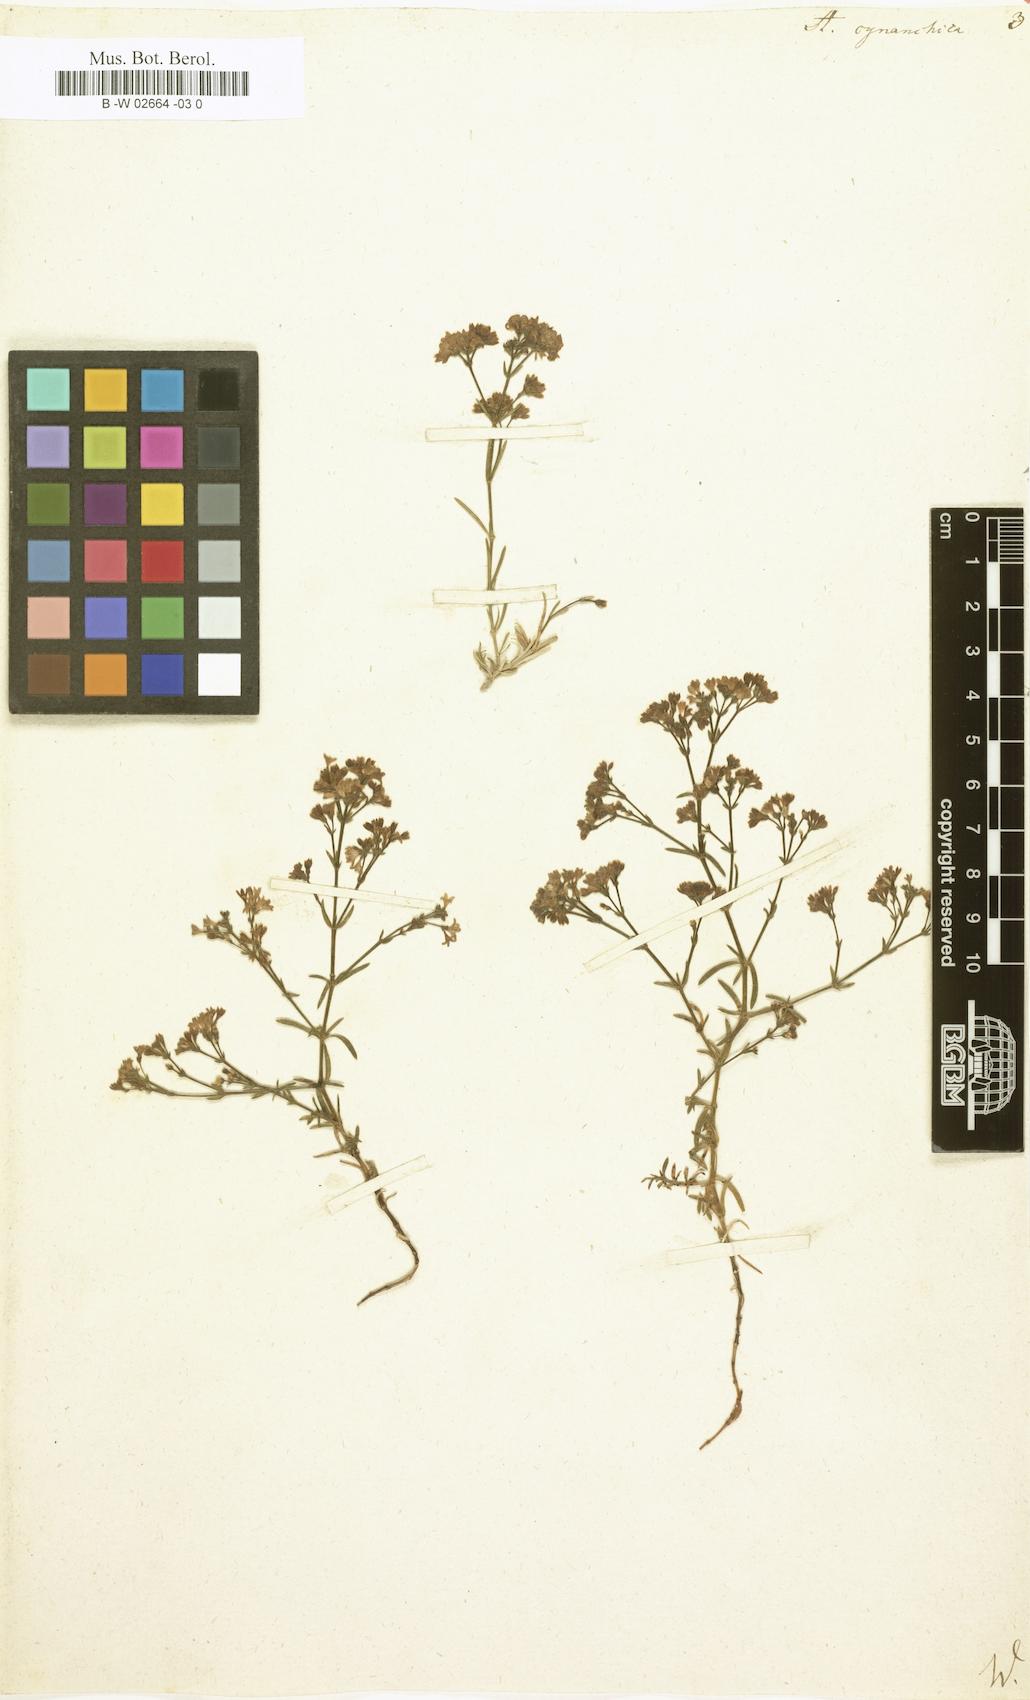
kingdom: Plantae
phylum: Tracheophyta
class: Magnoliopsida
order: Gentianales
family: Rubiaceae
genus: Cynanchica
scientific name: Cynanchica pyrenaica
